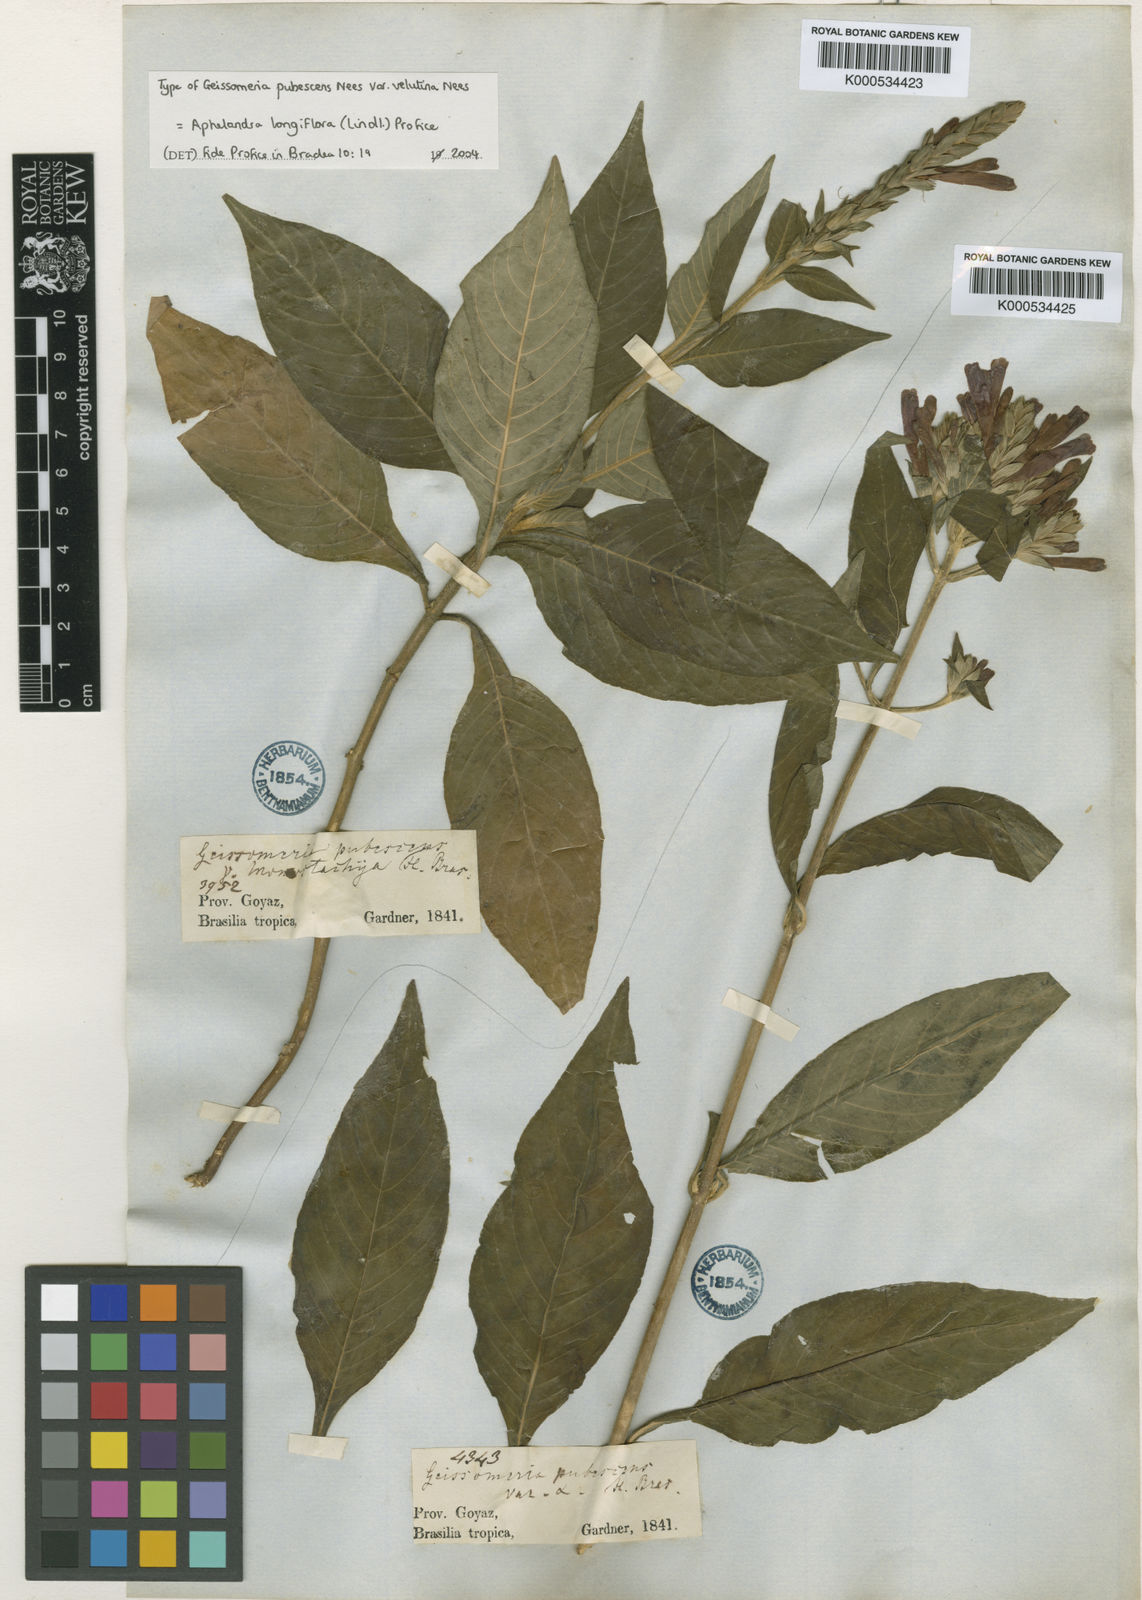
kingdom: Plantae
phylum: Tracheophyta
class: Magnoliopsida
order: Lamiales
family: Acanthaceae
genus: Aphelandra
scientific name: Aphelandra longiflora
